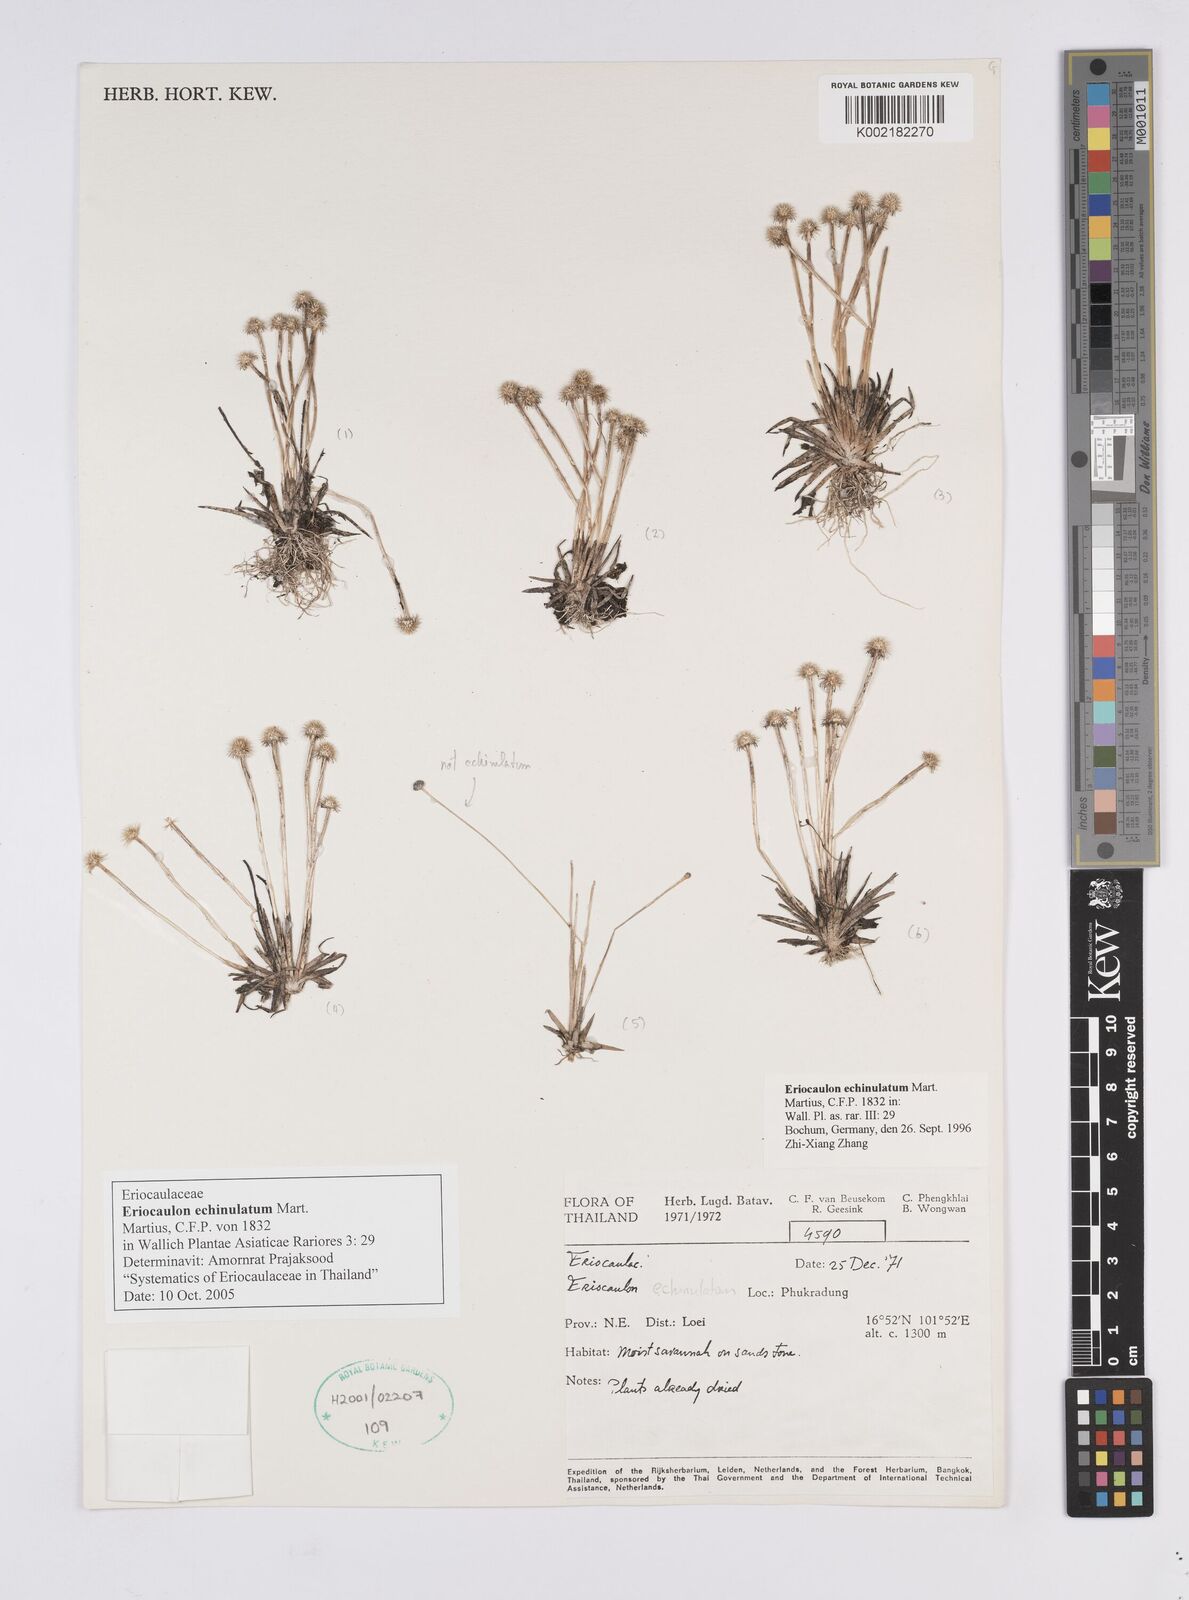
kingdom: Plantae
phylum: Tracheophyta
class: Liliopsida
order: Poales
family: Eriocaulaceae
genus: Eriocaulon
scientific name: Eriocaulon echinulatum
